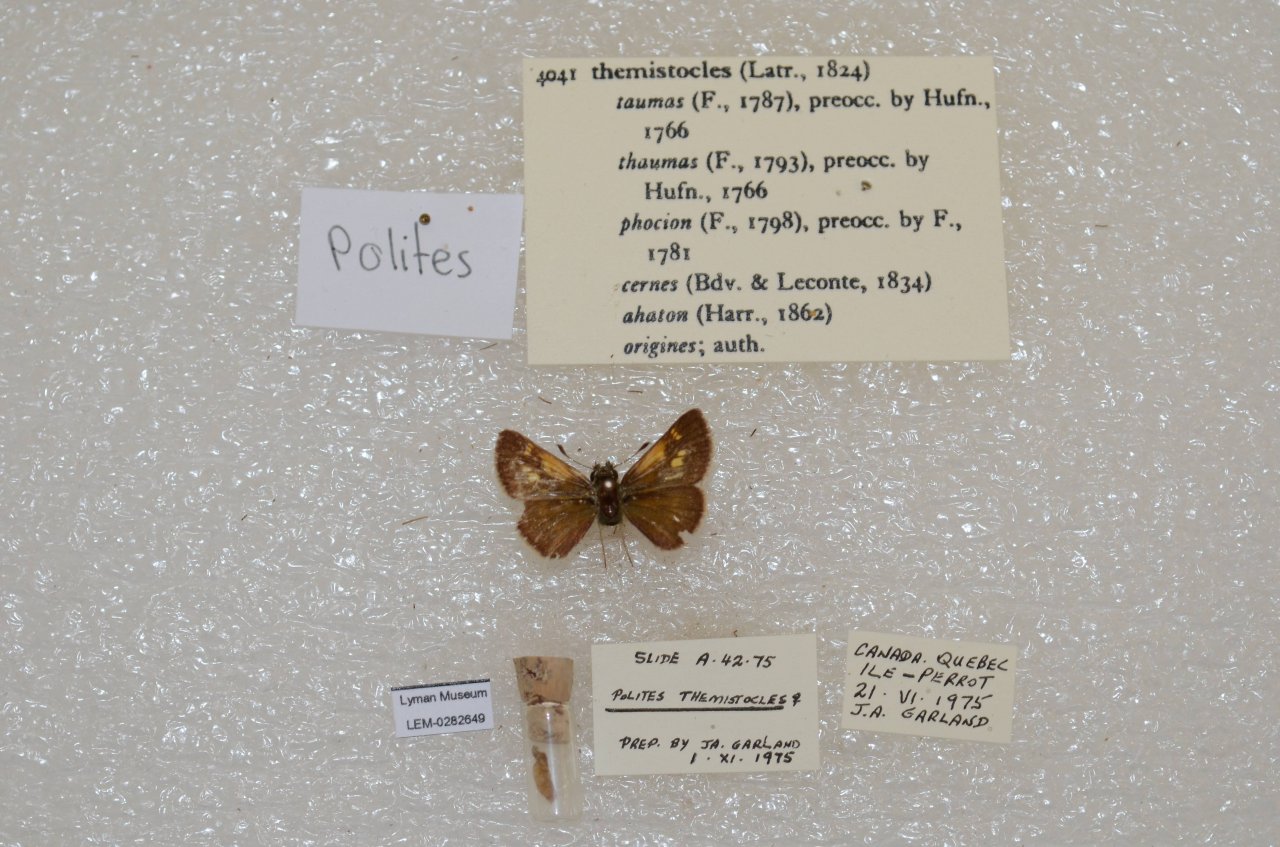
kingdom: Animalia
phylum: Arthropoda
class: Insecta
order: Lepidoptera
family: Hesperiidae
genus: Polites
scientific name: Polites themistocles
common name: Tawny-edged Skipper
